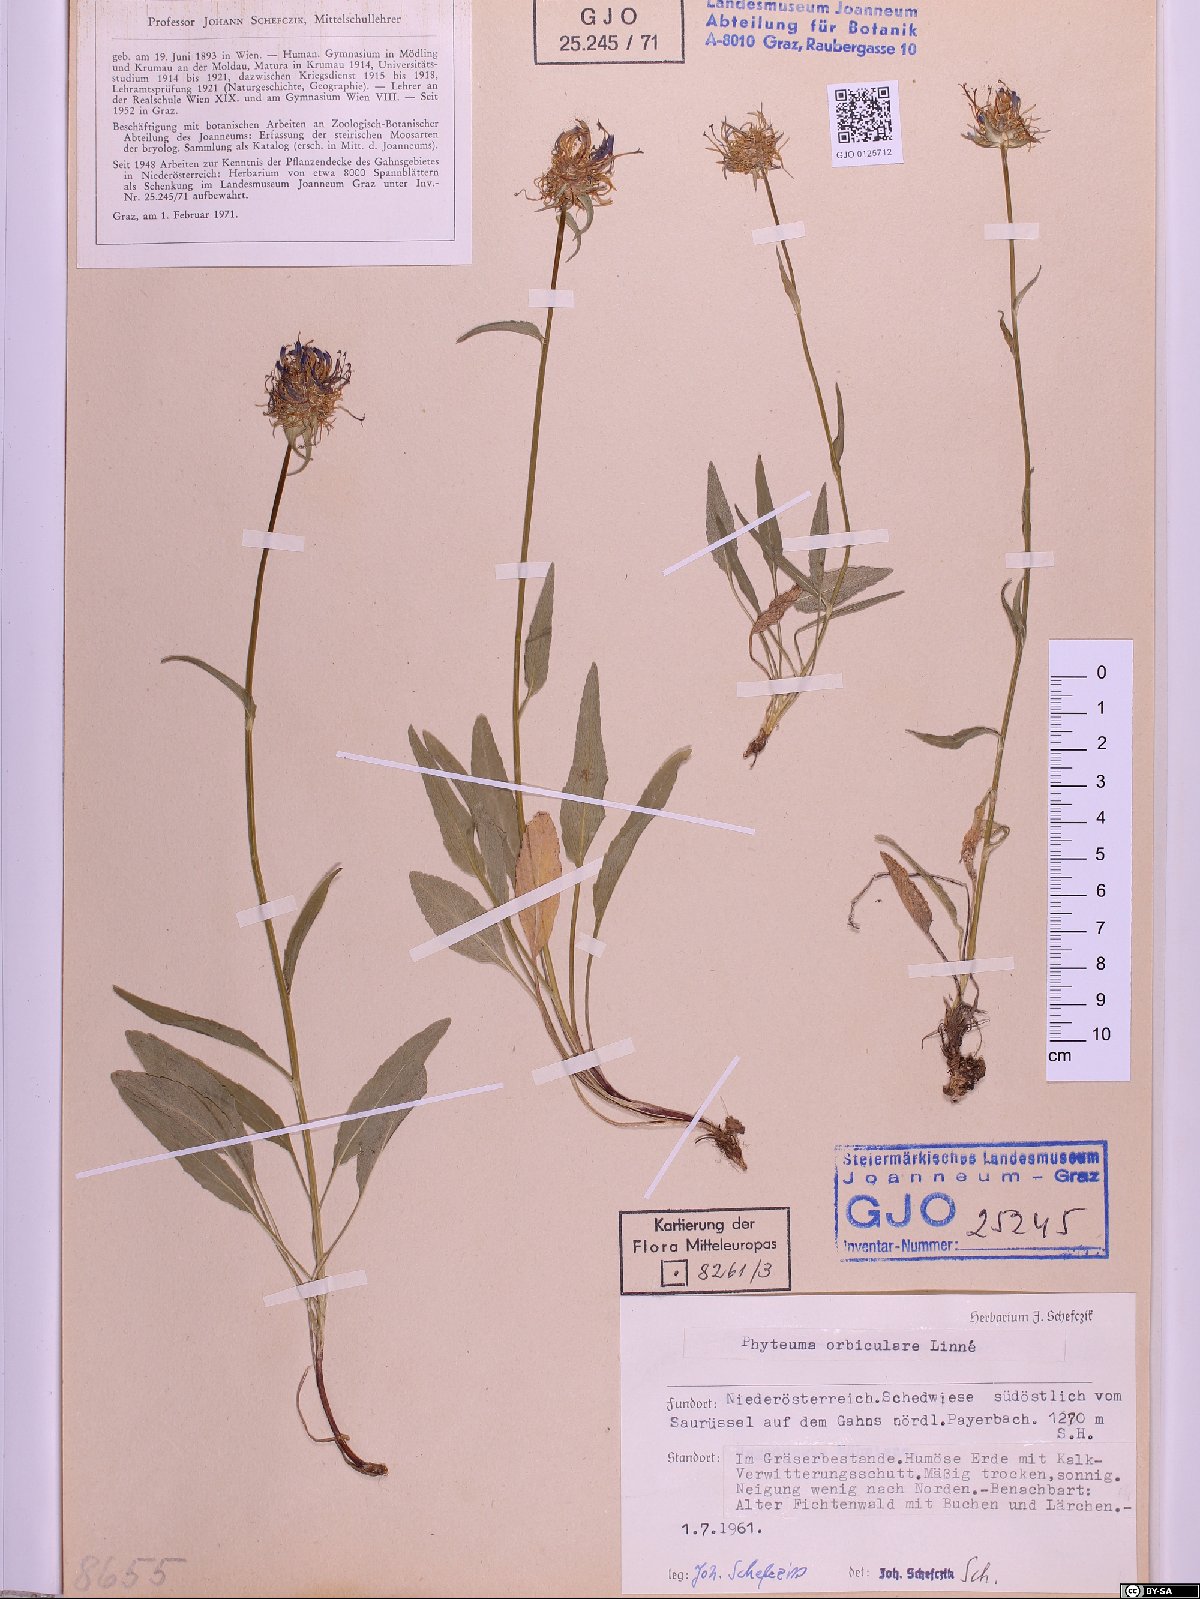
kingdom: Plantae
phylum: Tracheophyta
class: Magnoliopsida
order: Asterales
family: Campanulaceae
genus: Phyteuma
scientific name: Phyteuma orbiculare
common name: Round-headed rampion
